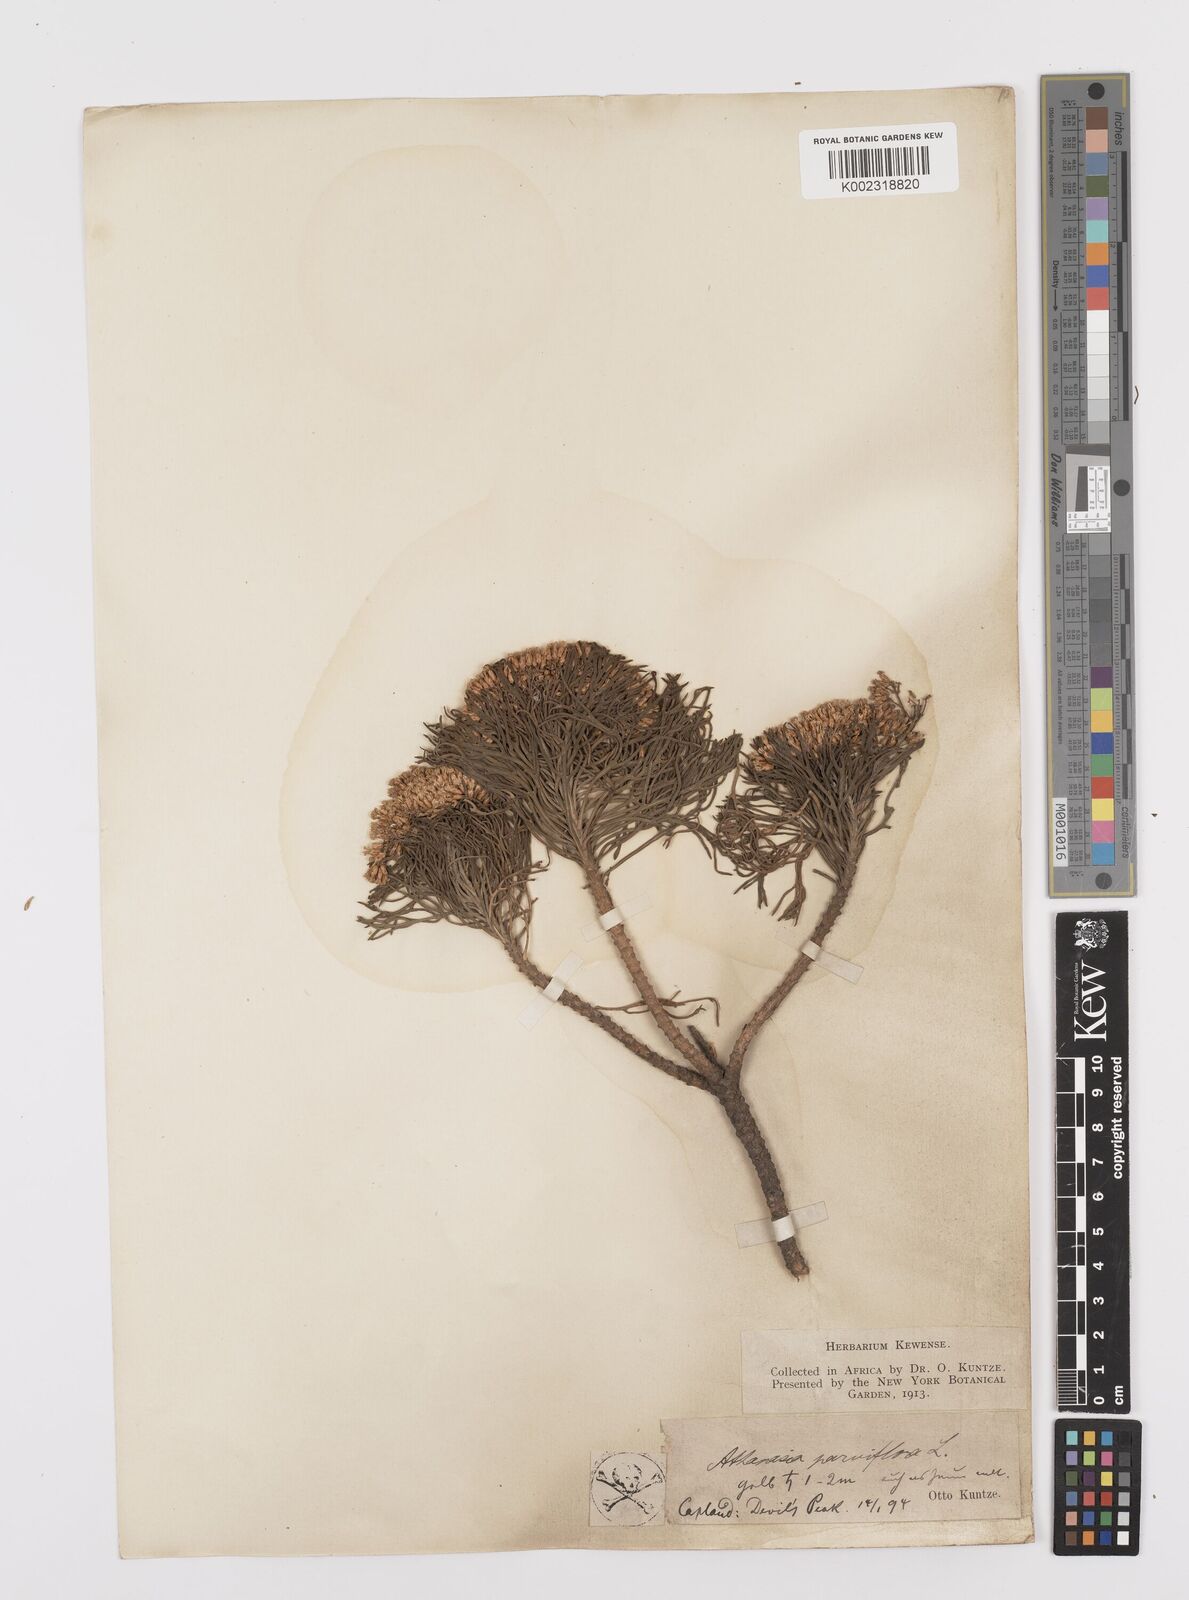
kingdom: Plantae
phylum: Tracheophyta
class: Magnoliopsida
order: Asterales
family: Asteraceae
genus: Hymenolepis
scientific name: Hymenolepis crithmifolia
